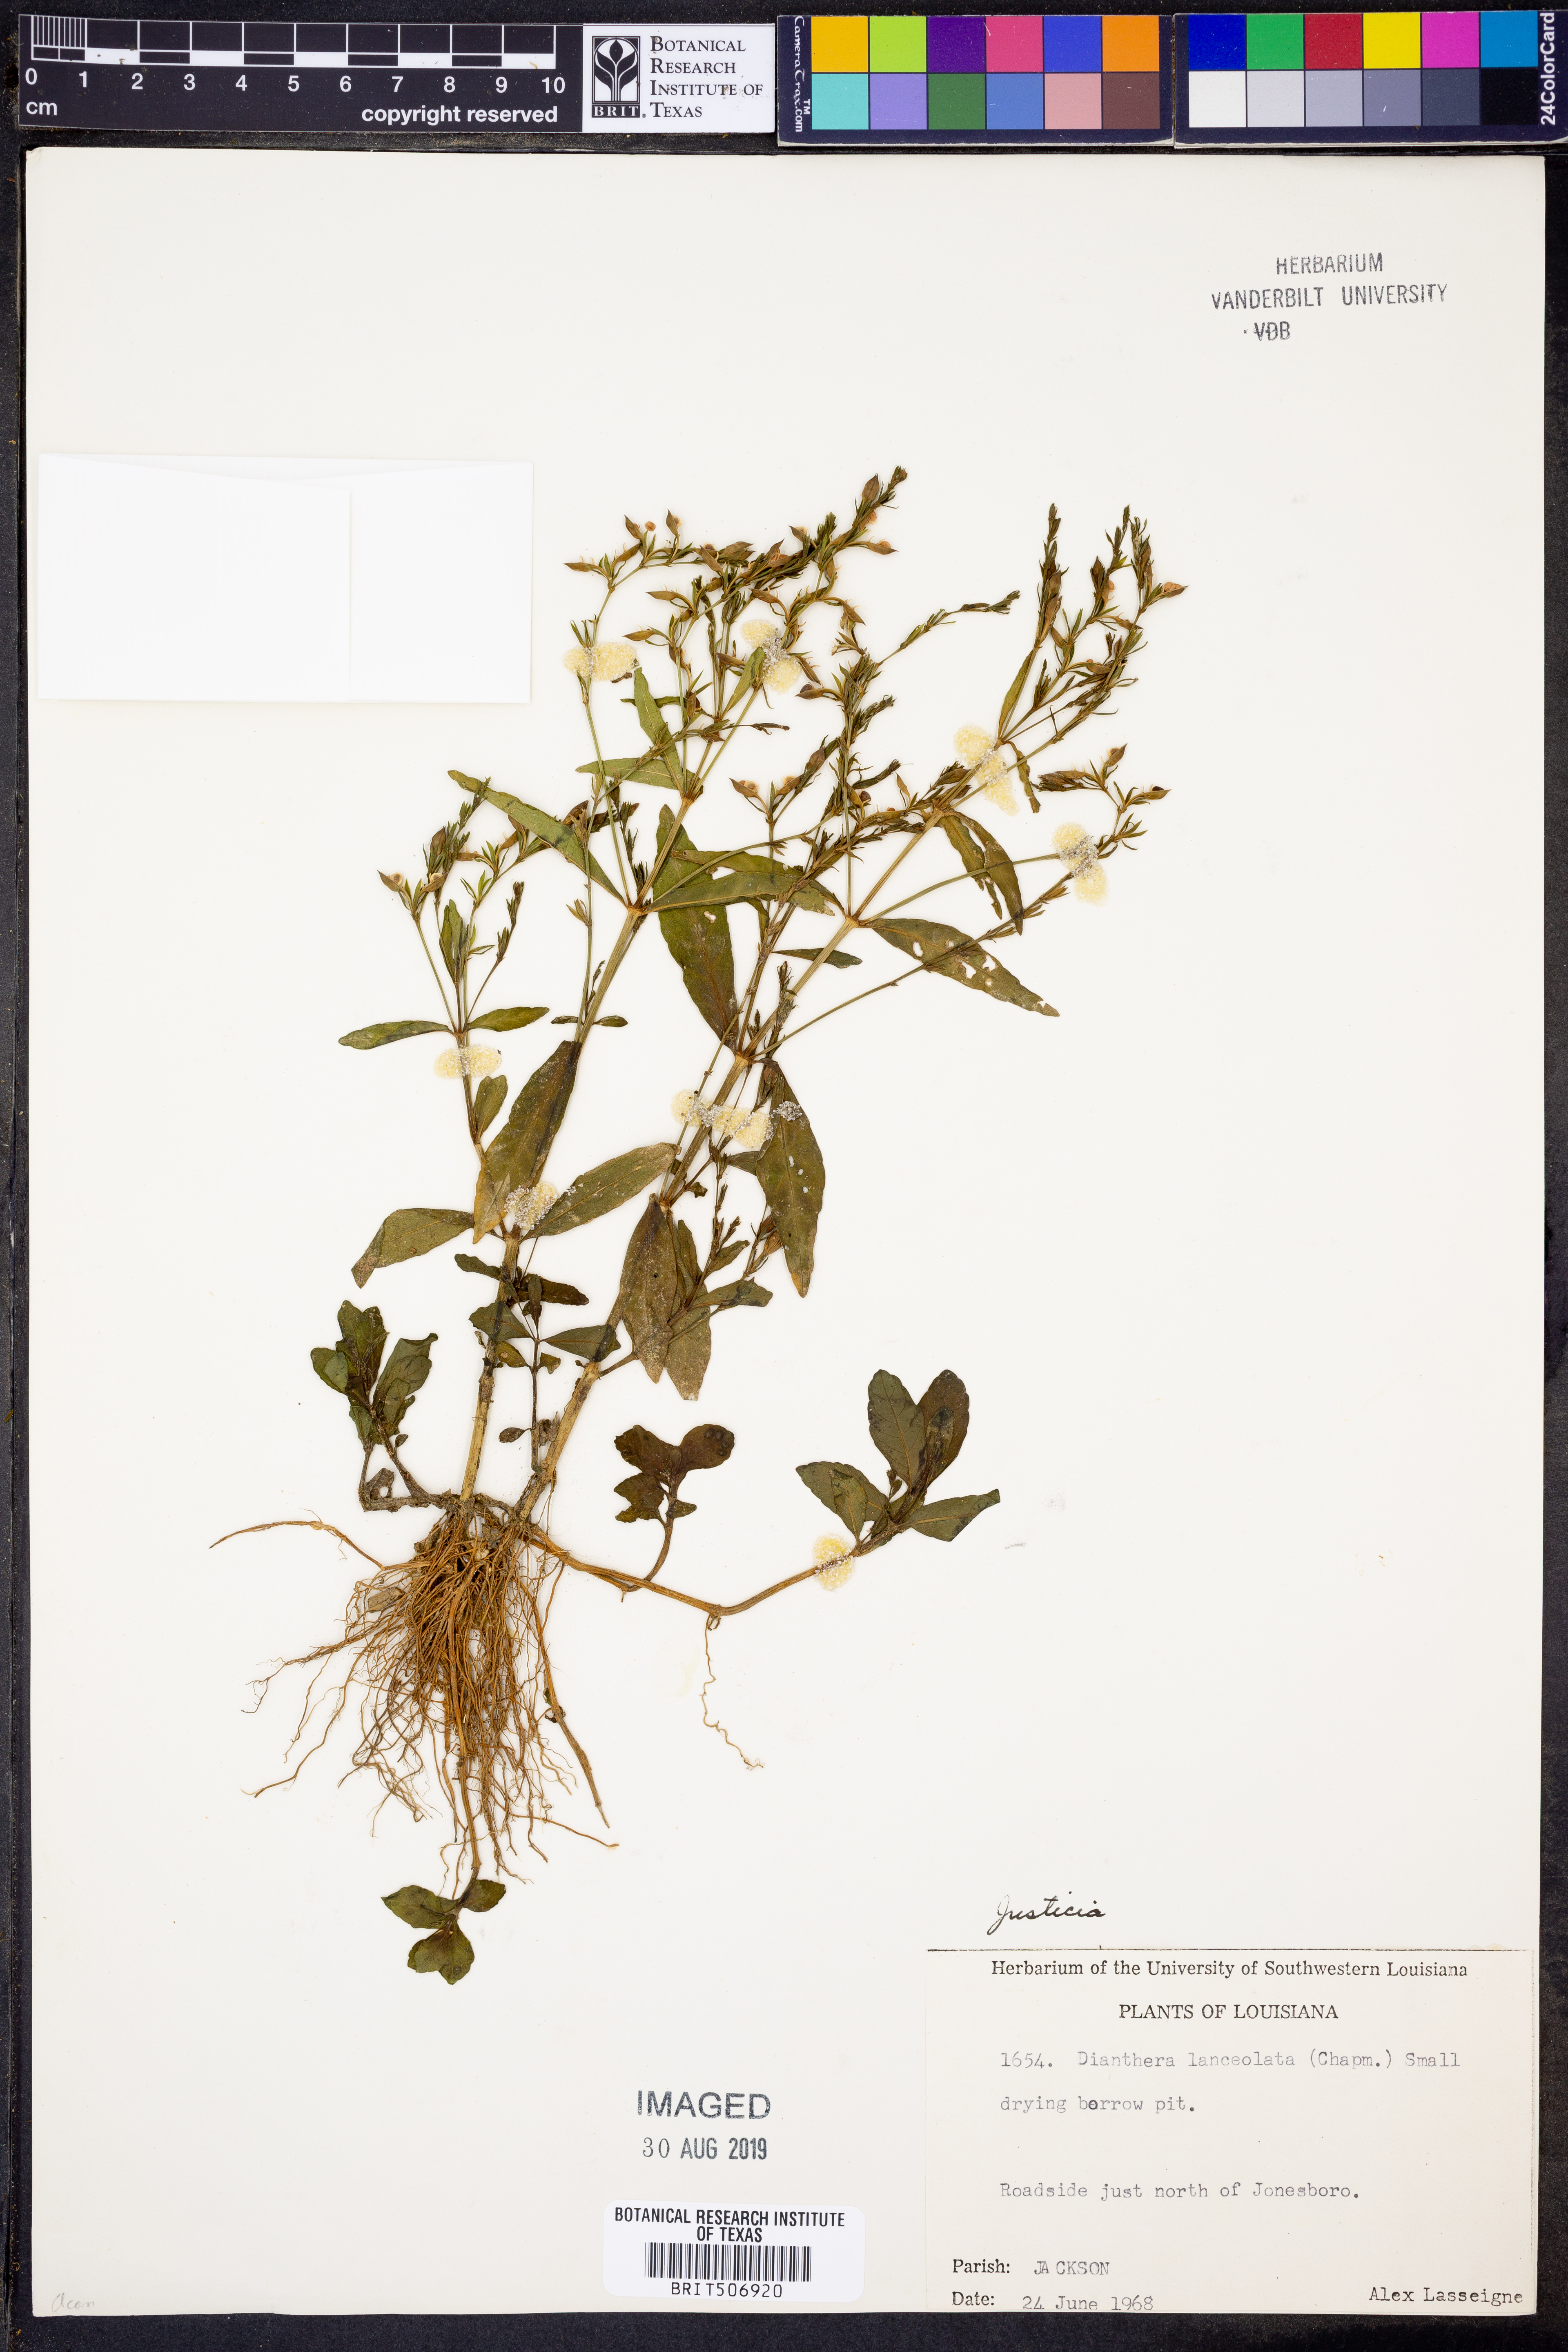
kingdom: Plantae
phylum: Tracheophyta
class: Magnoliopsida
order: Lamiales
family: Acanthaceae
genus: Justicia
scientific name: Justicia lanceolata
